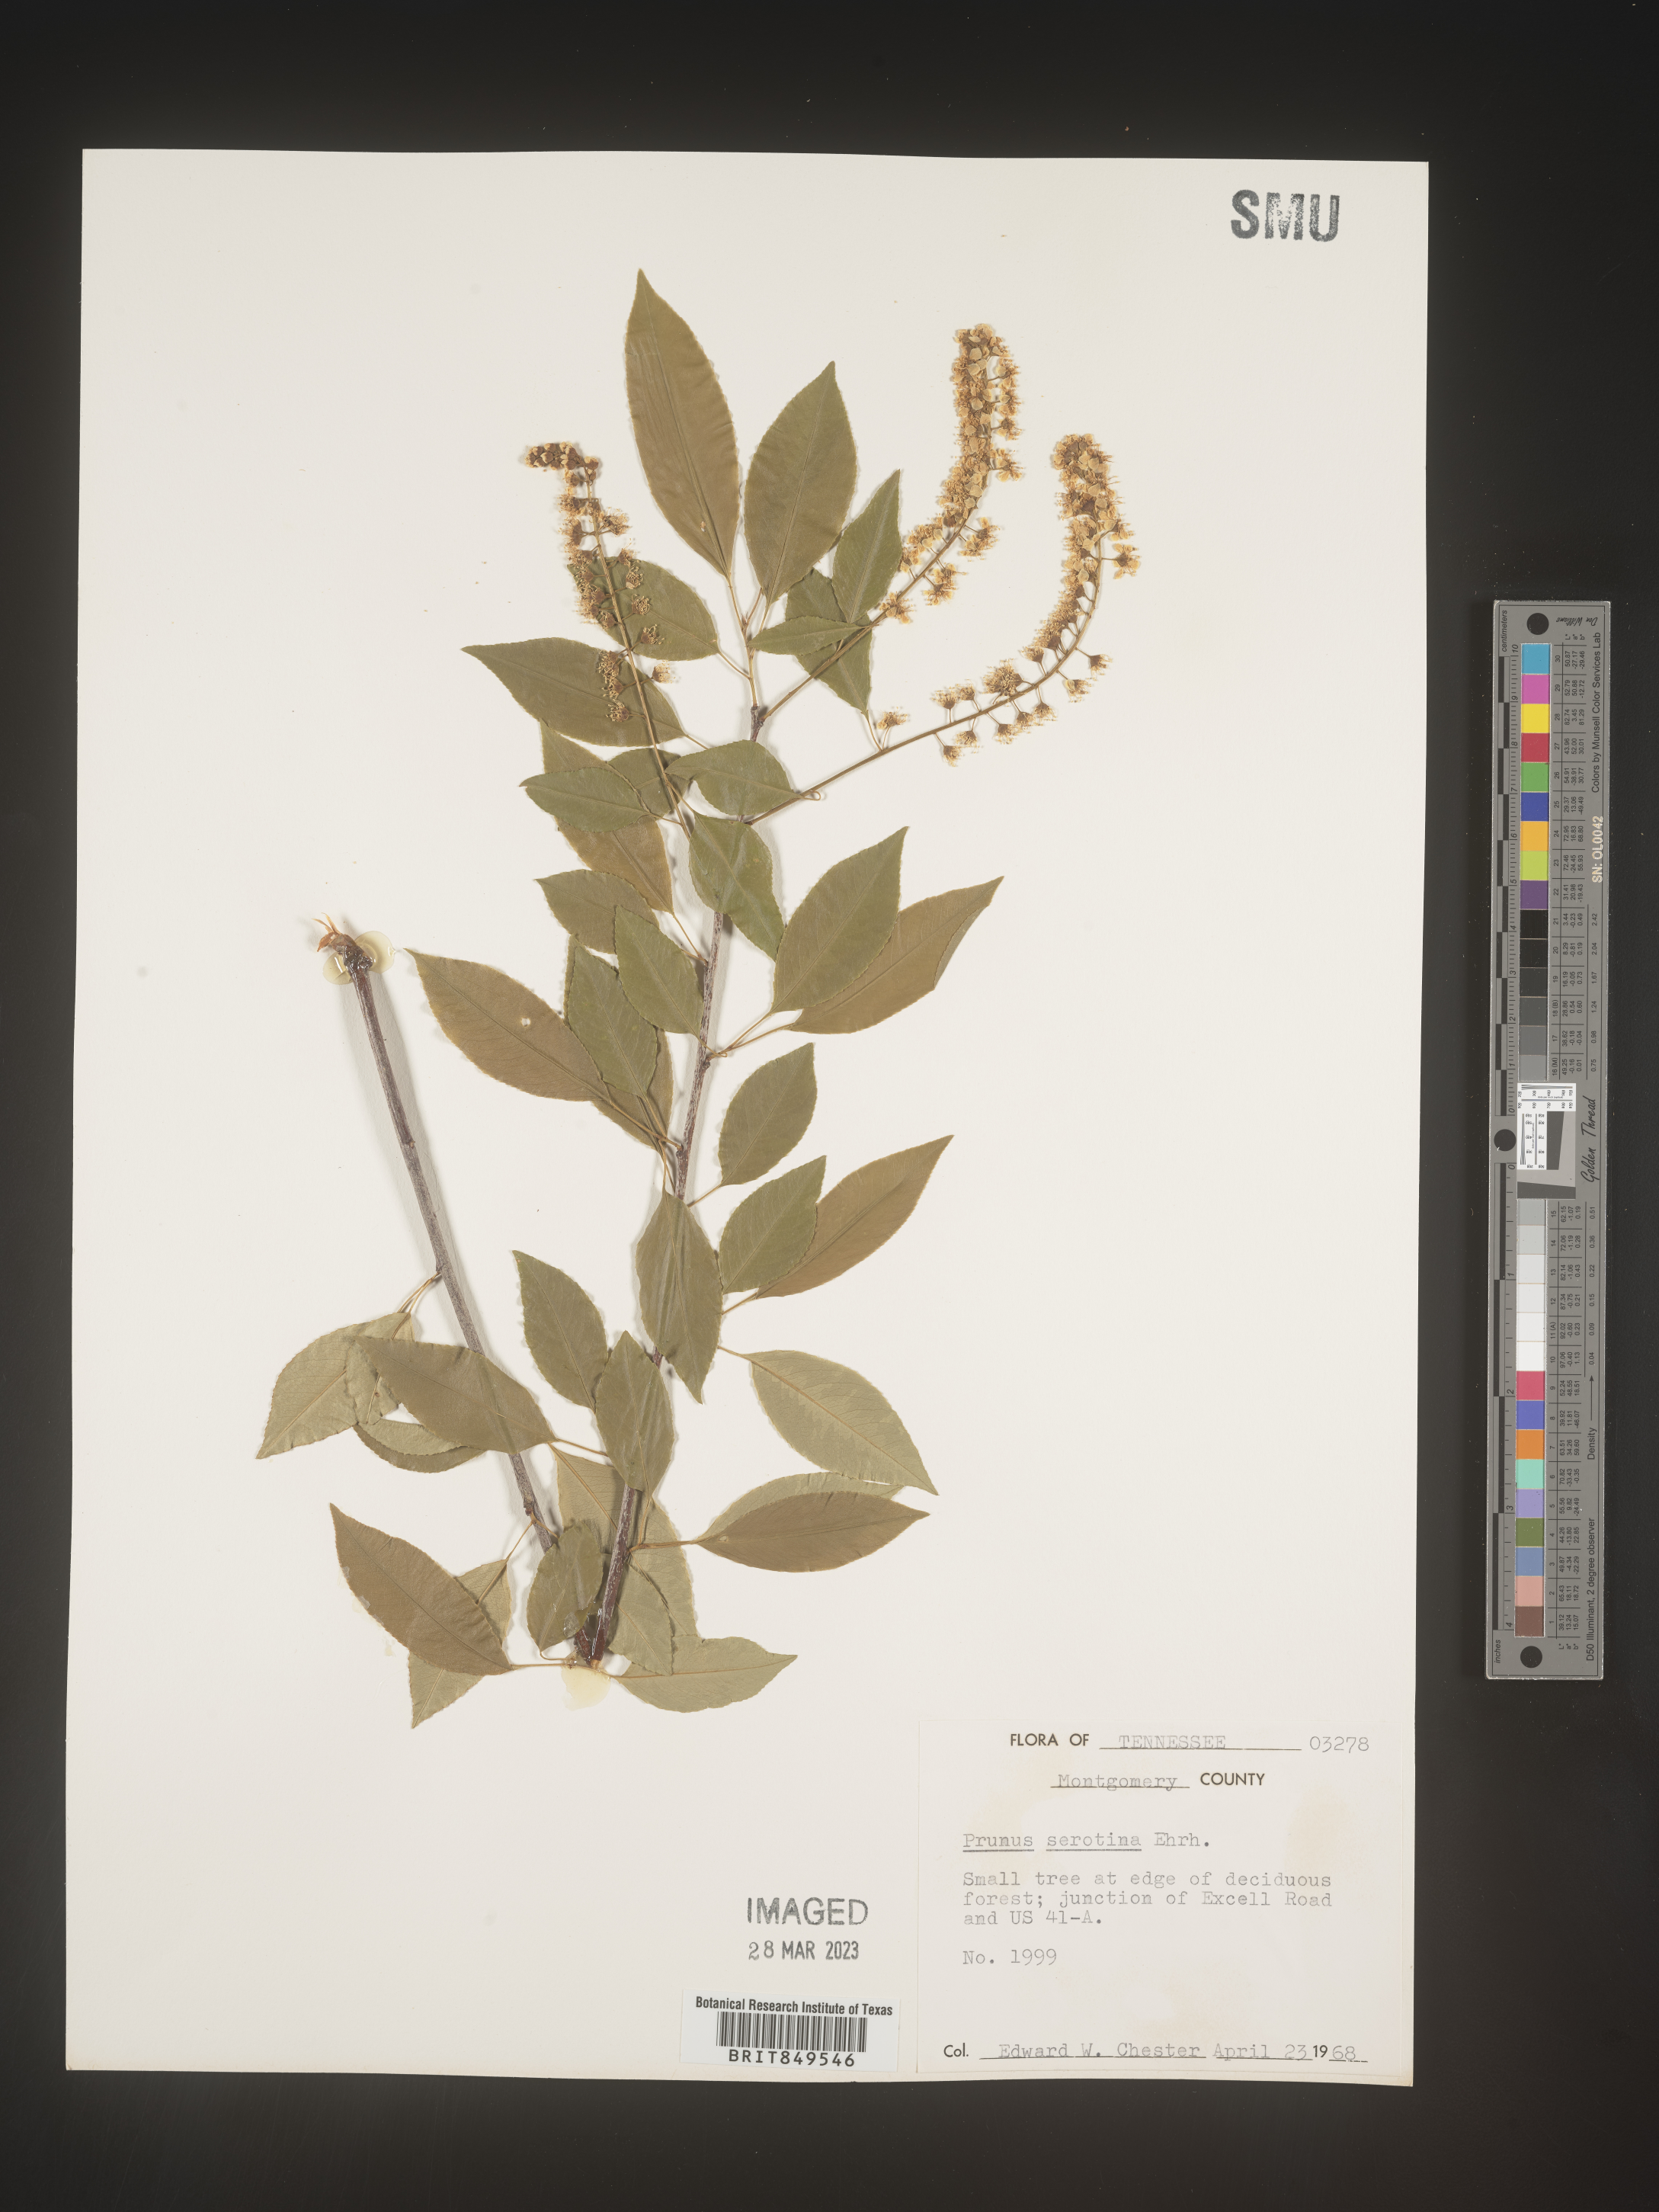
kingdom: Plantae
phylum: Tracheophyta
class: Magnoliopsida
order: Rosales
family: Rosaceae
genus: Prunus
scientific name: Prunus serotina
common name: Black cherry
